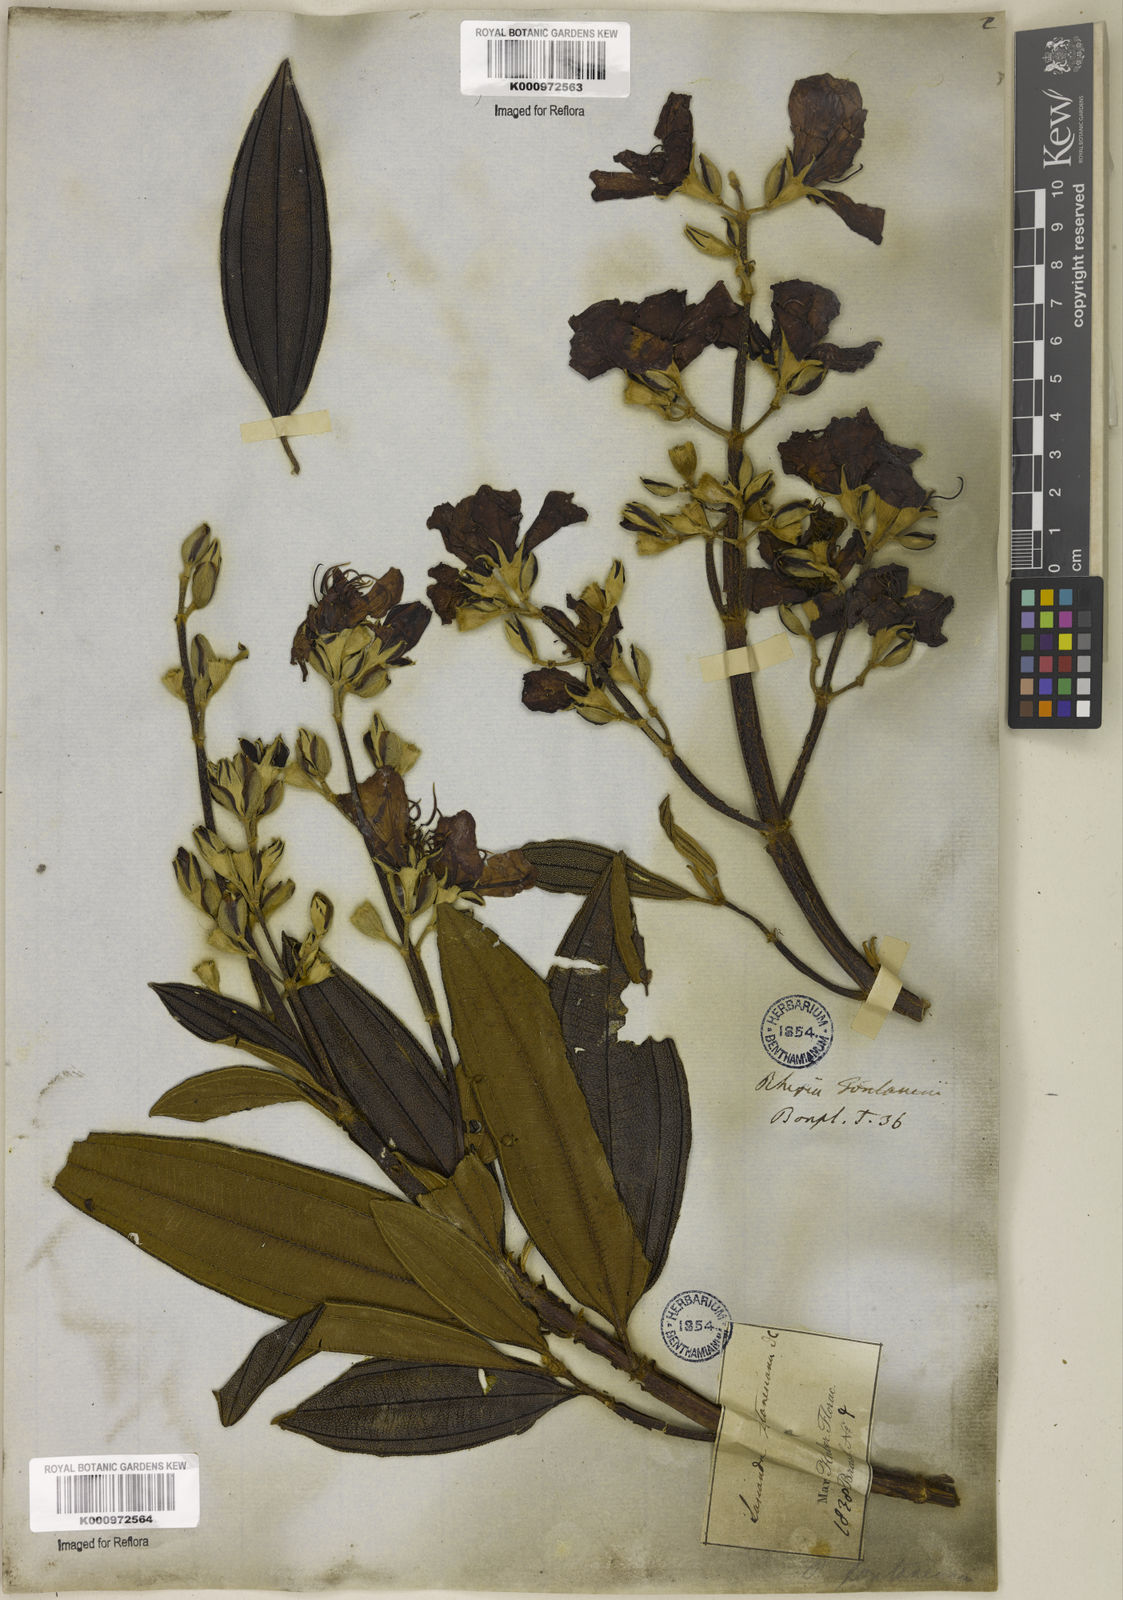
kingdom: Plantae
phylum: Tracheophyta
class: Magnoliopsida
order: Myrtales
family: Melastomataceae
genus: Pleroma
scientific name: Pleroma granulosum
